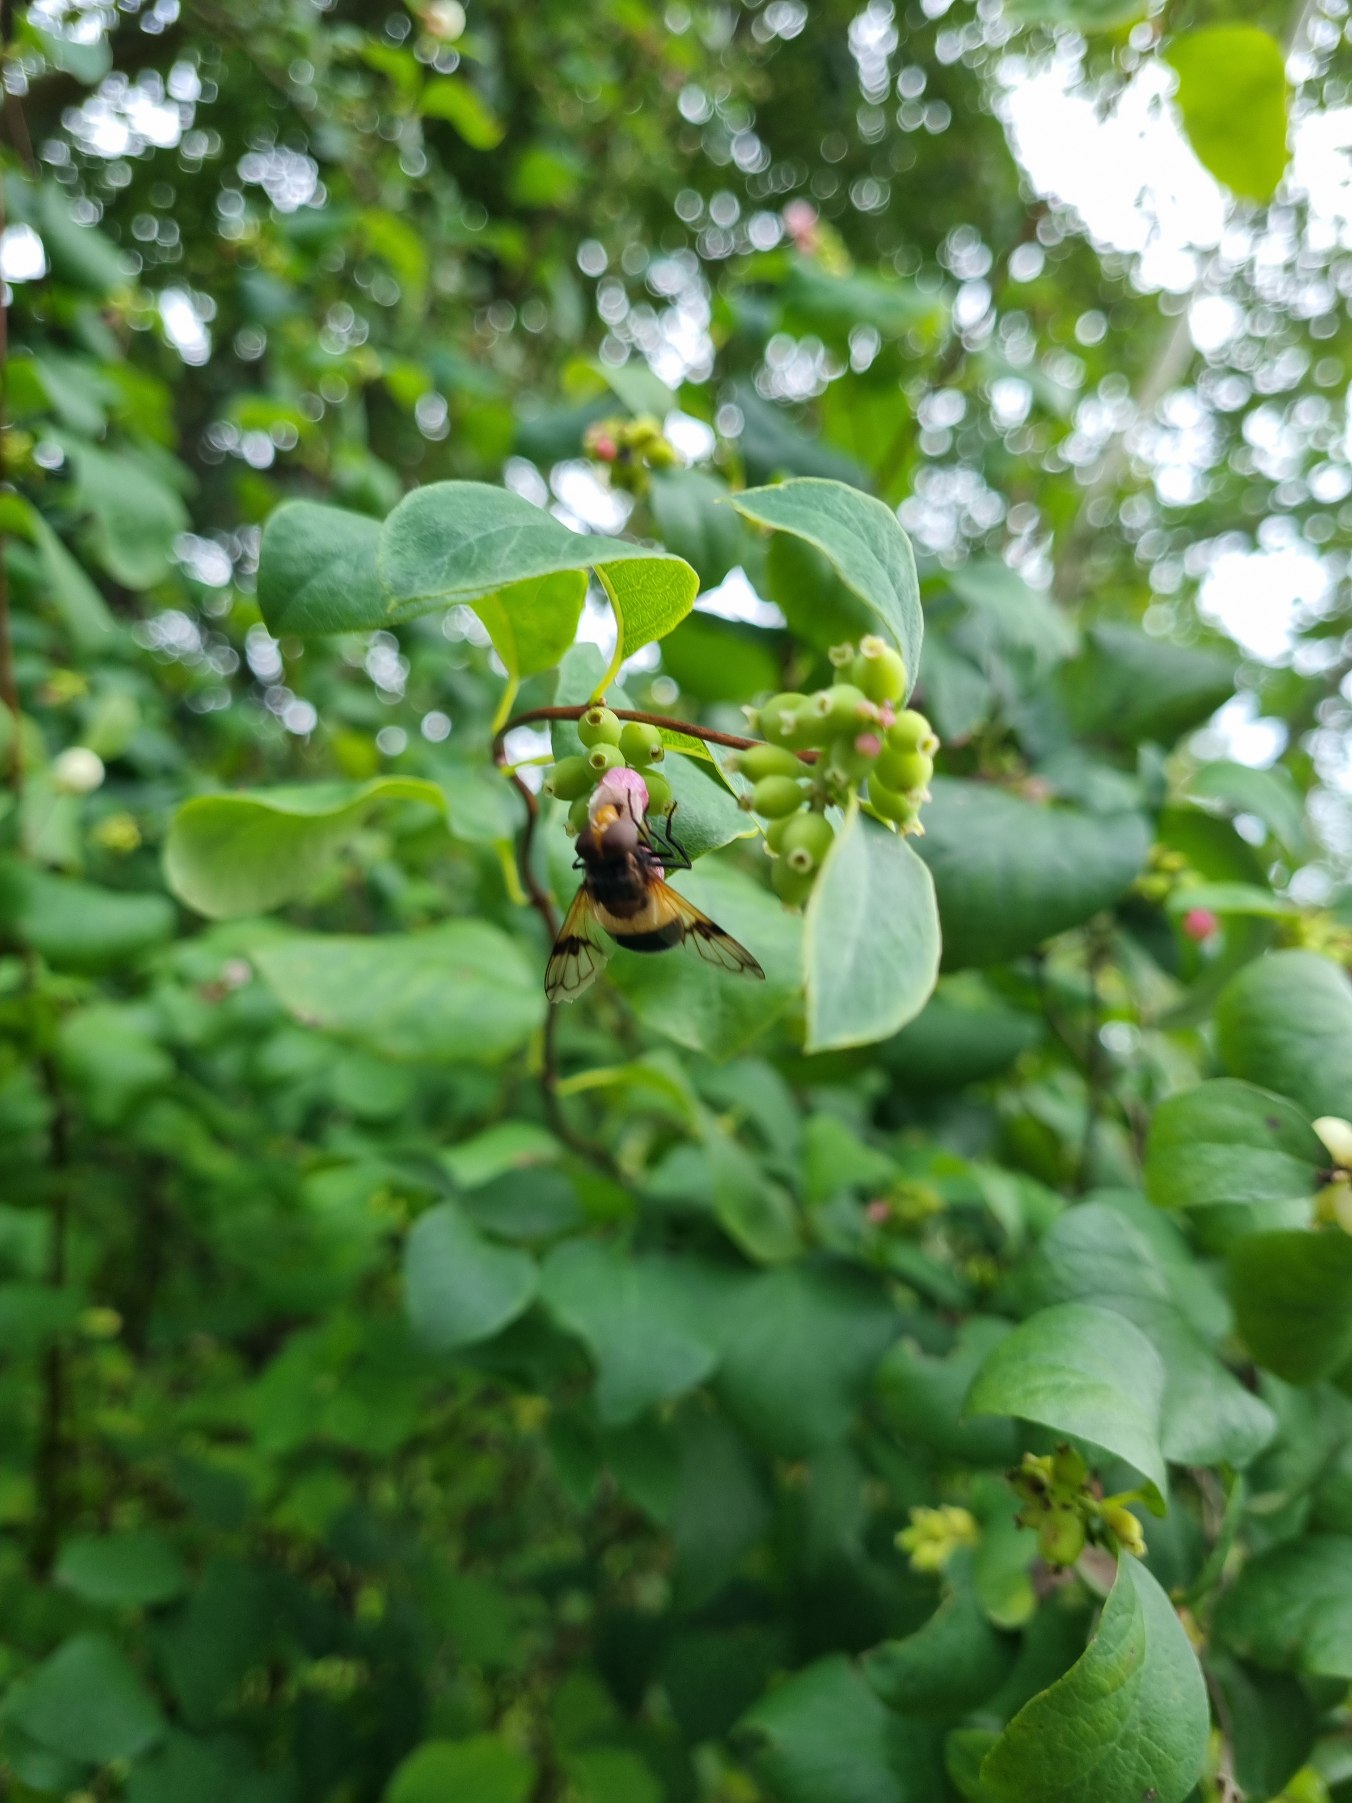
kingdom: Animalia
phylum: Arthropoda
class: Insecta
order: Diptera
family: Syrphidae
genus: Volucella
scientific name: Volucella pellucens
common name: Hvidbåndet humlesvirreflue
